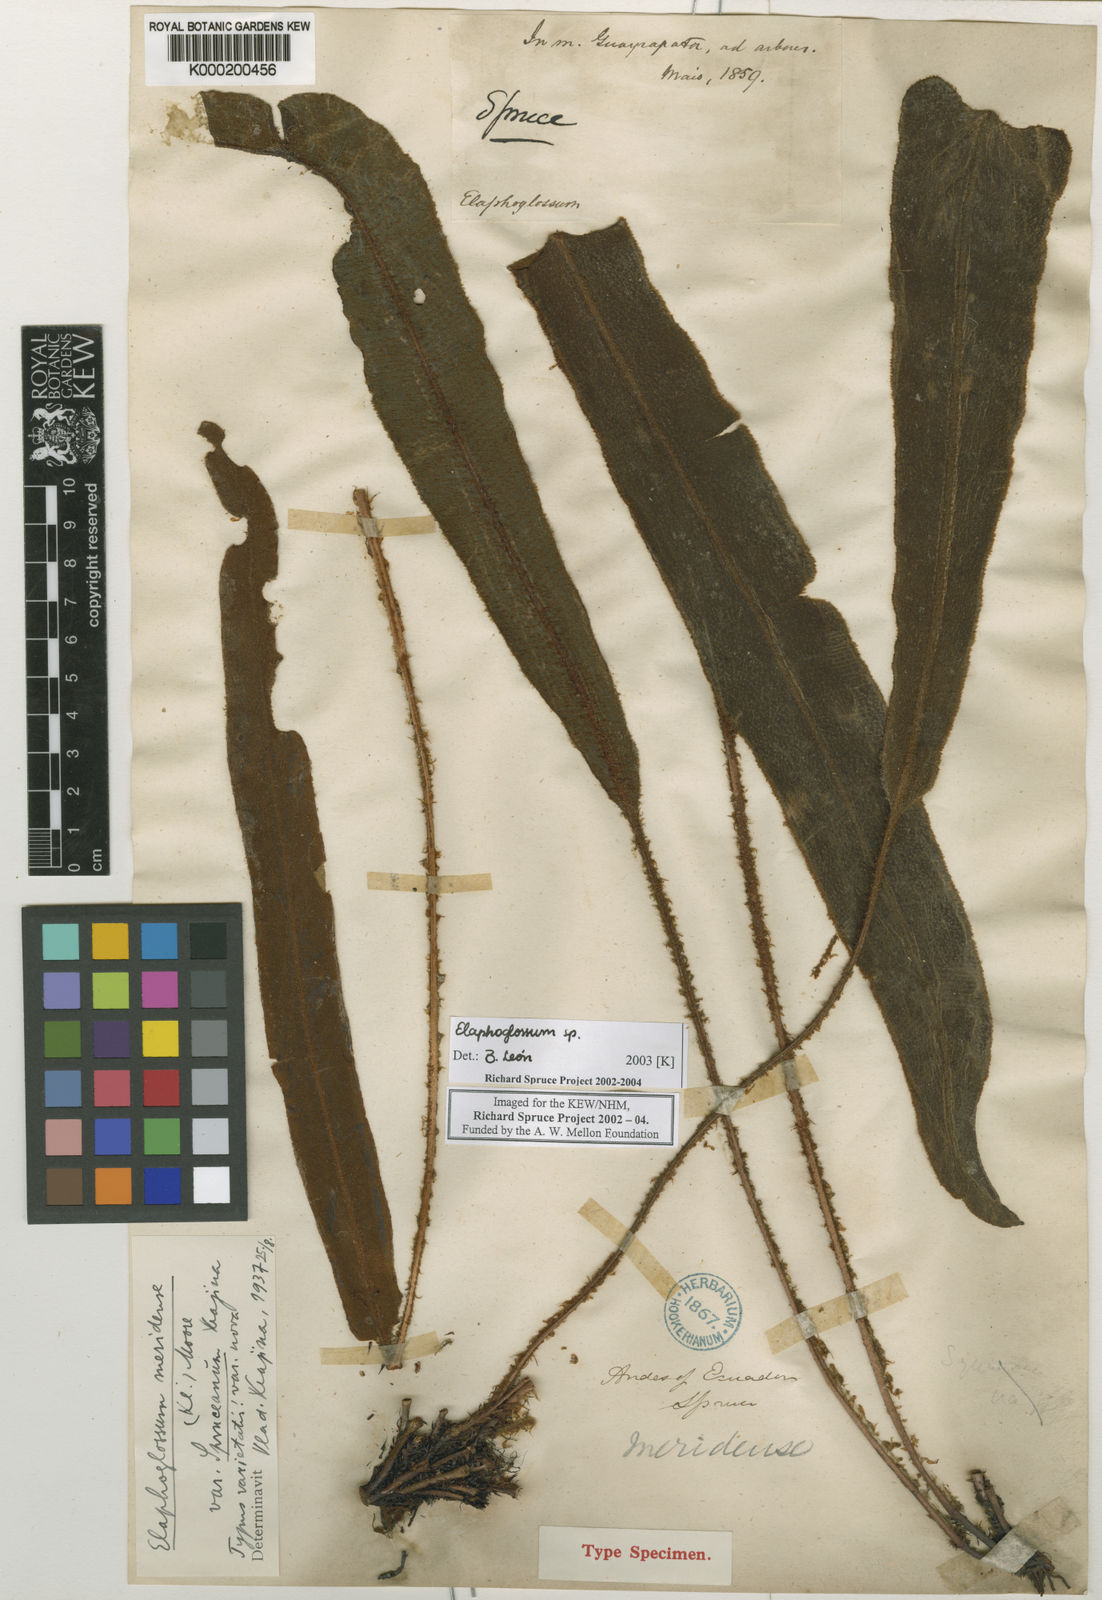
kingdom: Plantae
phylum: Tracheophyta
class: Polypodiopsida
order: Polypodiales
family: Dryopteridaceae
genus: Elaphoglossum
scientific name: Elaphoglossum meridense
